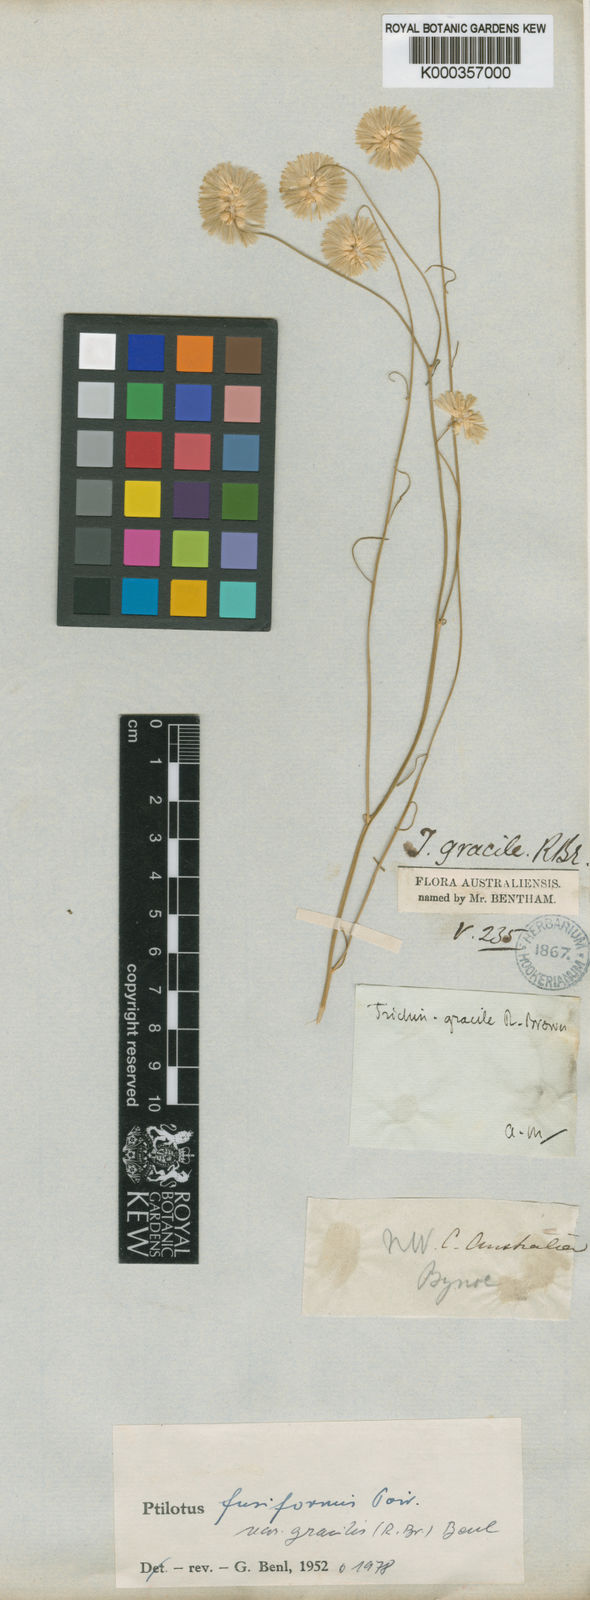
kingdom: Plantae
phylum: Tracheophyta
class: Magnoliopsida
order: Caryophyllales
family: Amaranthaceae
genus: Ptilotus
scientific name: Ptilotus fusiformis
